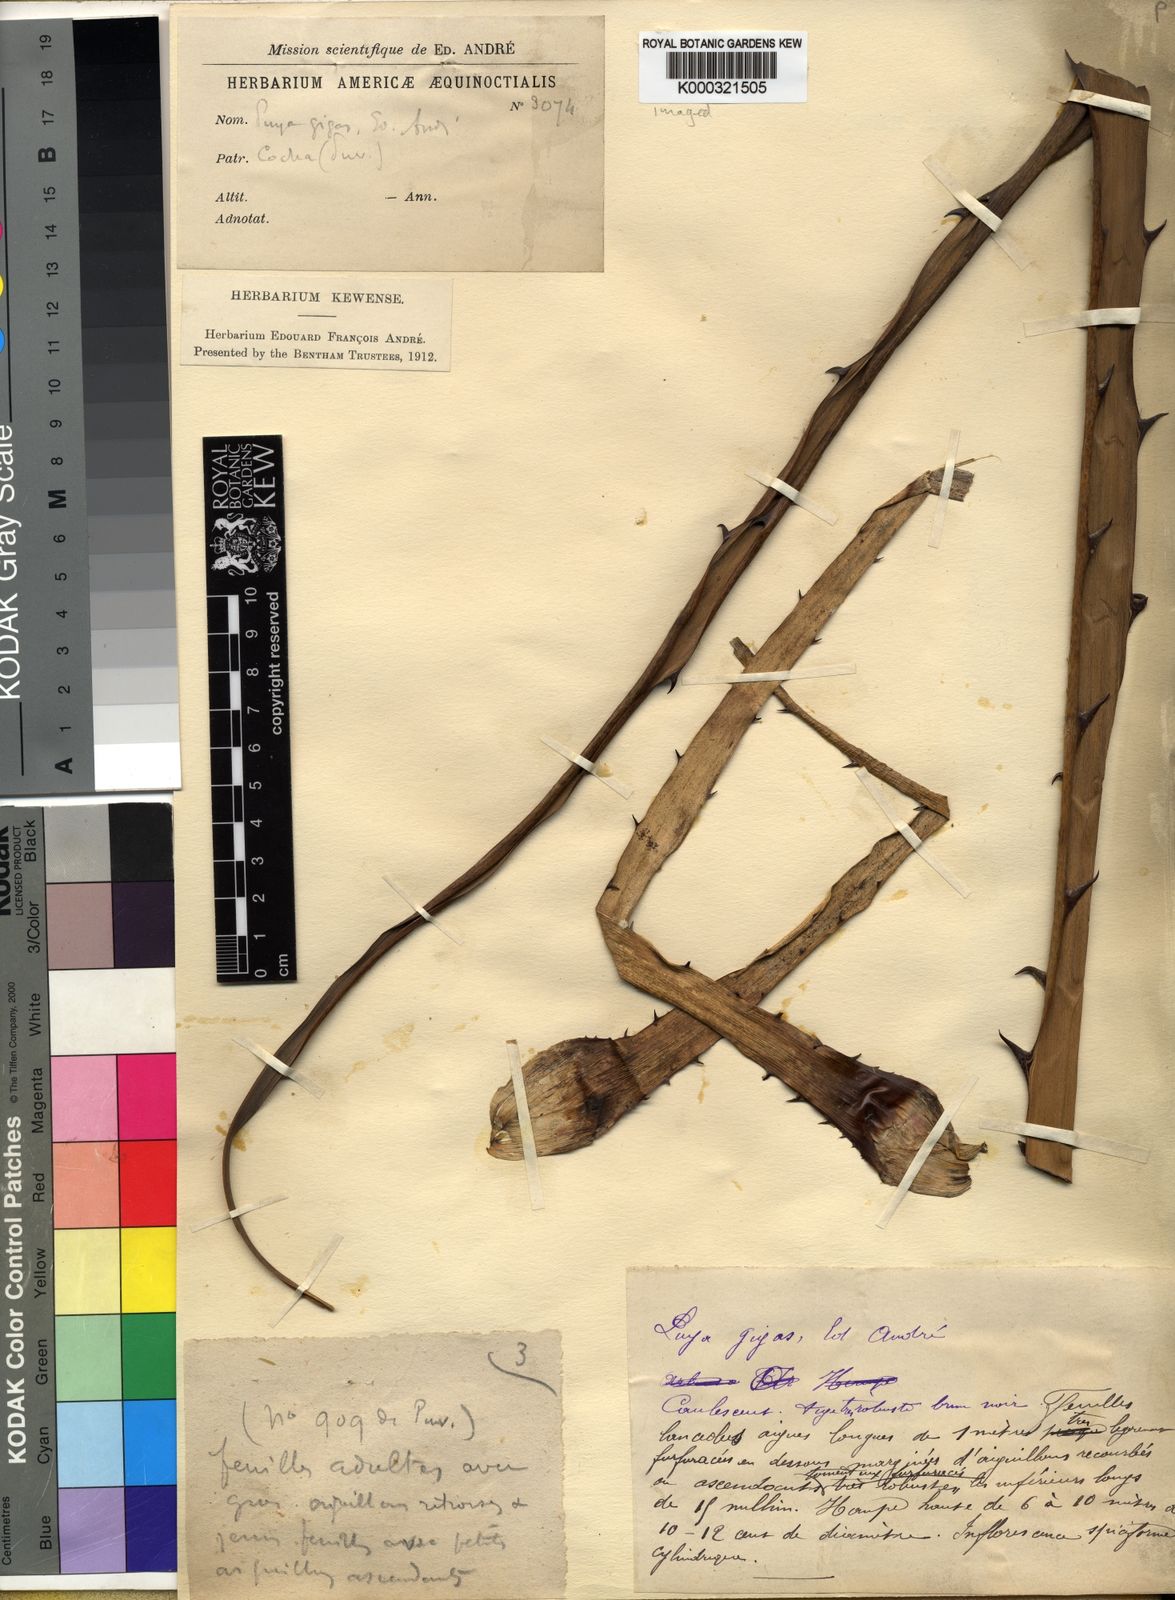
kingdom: Plantae
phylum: Tracheophyta
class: Liliopsida
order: Poales
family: Bromeliaceae
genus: Puya
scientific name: Puya gigas
